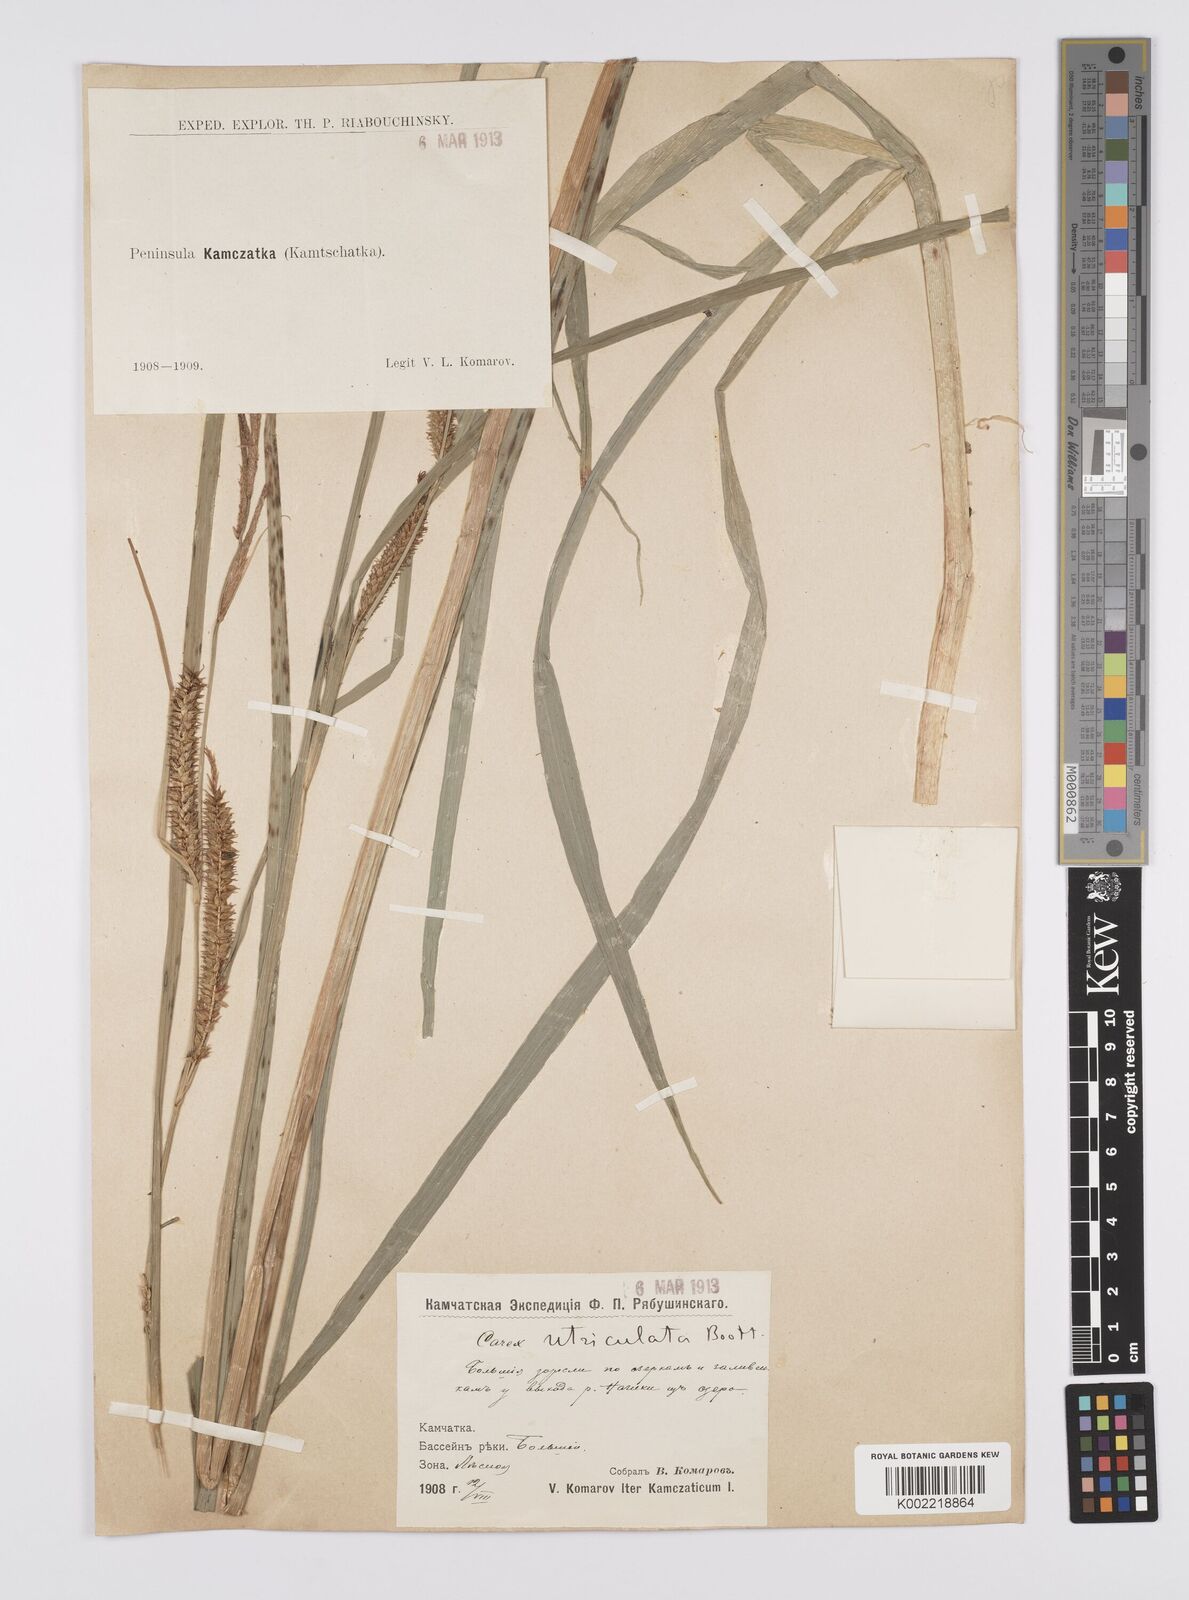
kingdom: Plantae
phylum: Tracheophyta
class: Liliopsida
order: Poales
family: Cyperaceae
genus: Carex
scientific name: Carex lurida
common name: Sallow sedge
